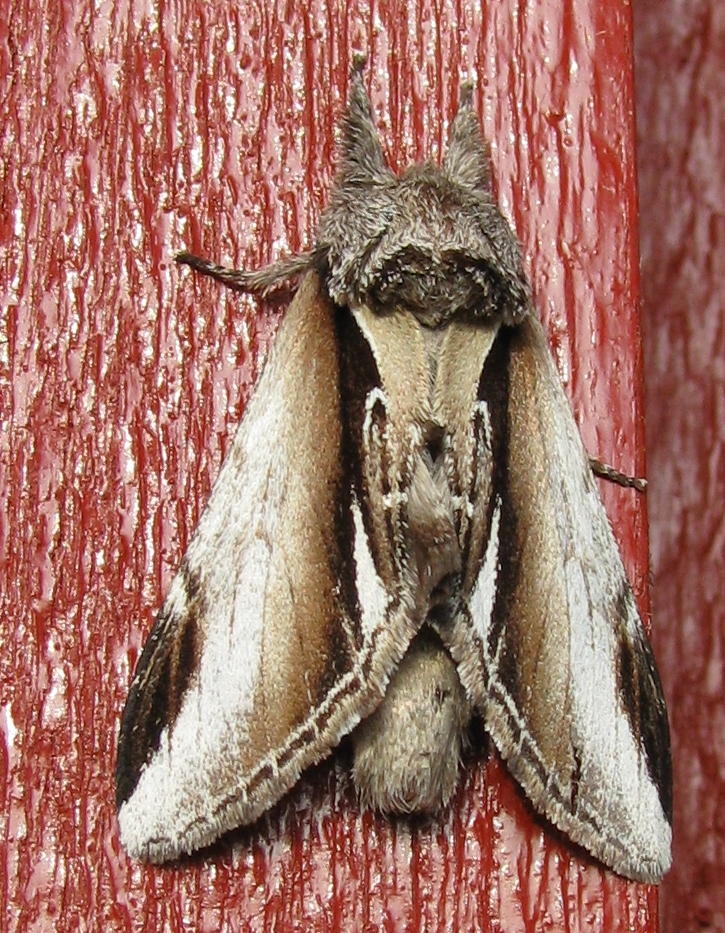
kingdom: Animalia
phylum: Arthropoda
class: Insecta
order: Lepidoptera
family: Notodontidae
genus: Pheosia
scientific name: Pheosia gnoma
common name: Lesser swallow prominent
